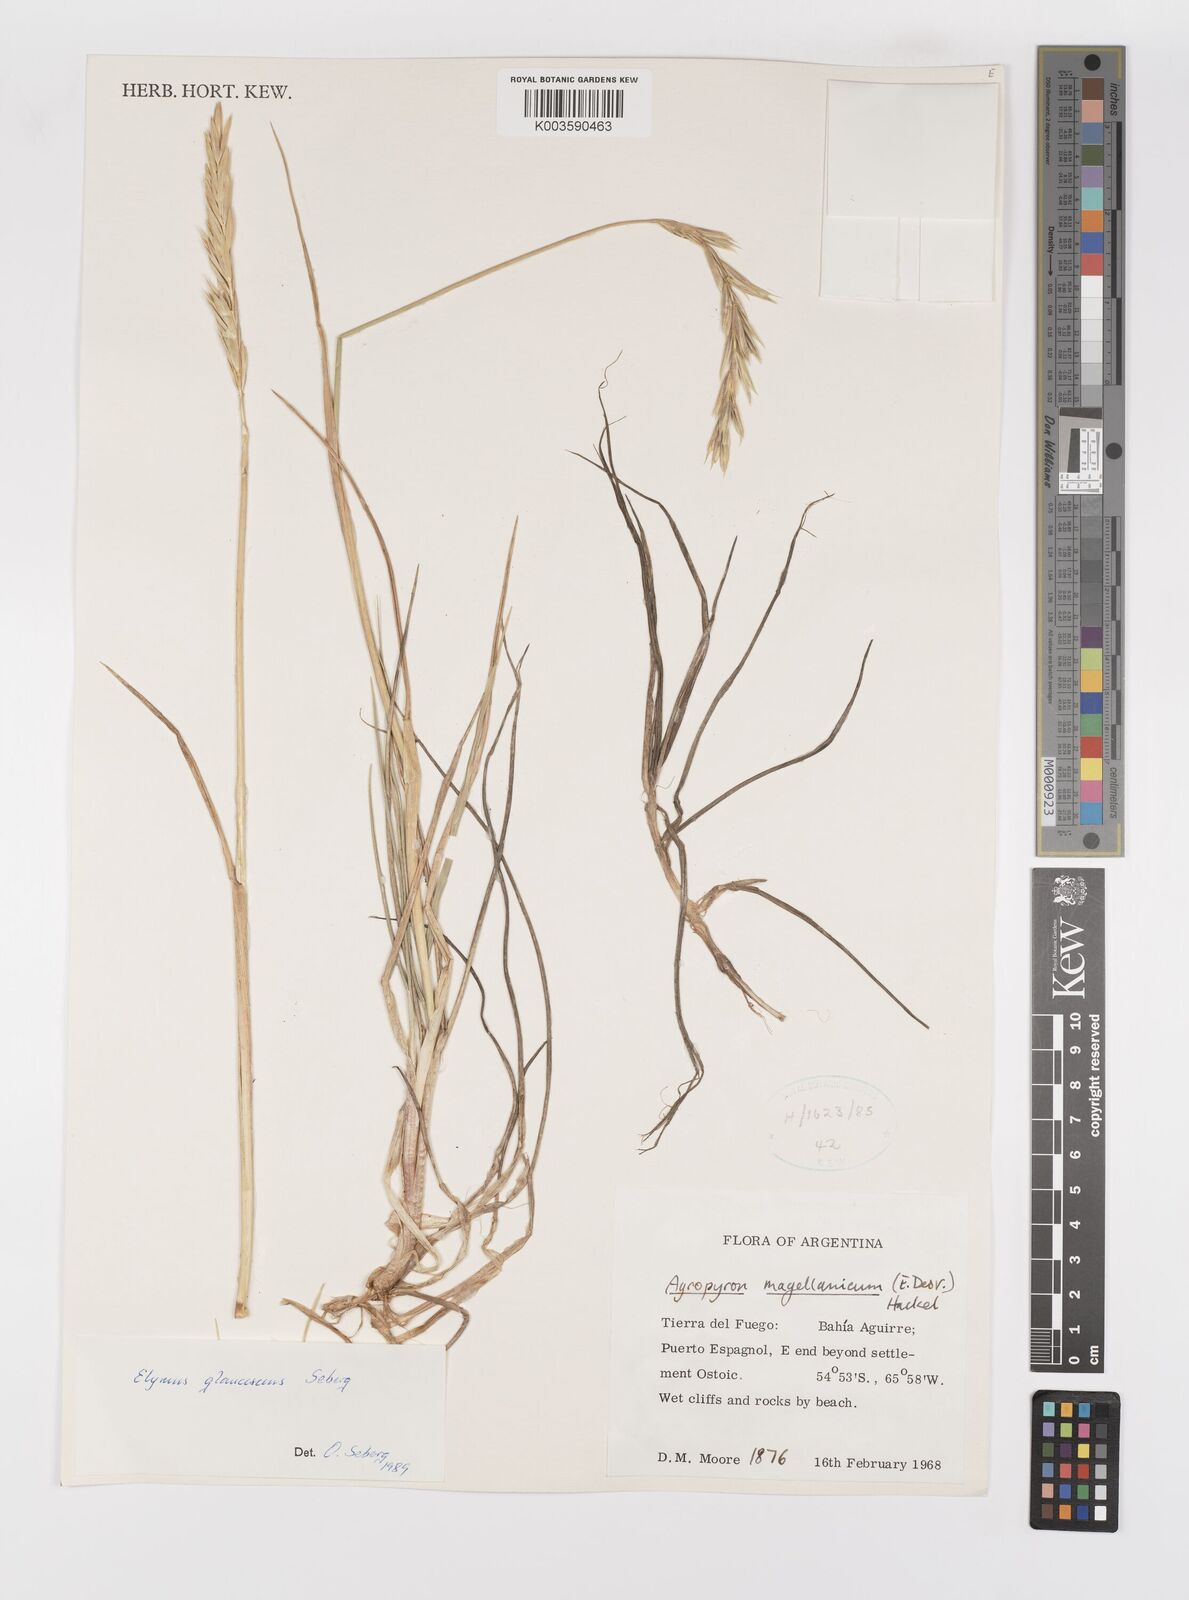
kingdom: Plantae
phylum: Tracheophyta
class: Liliopsida
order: Poales
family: Poaceae
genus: Elymus
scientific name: Elymus magellanicus
